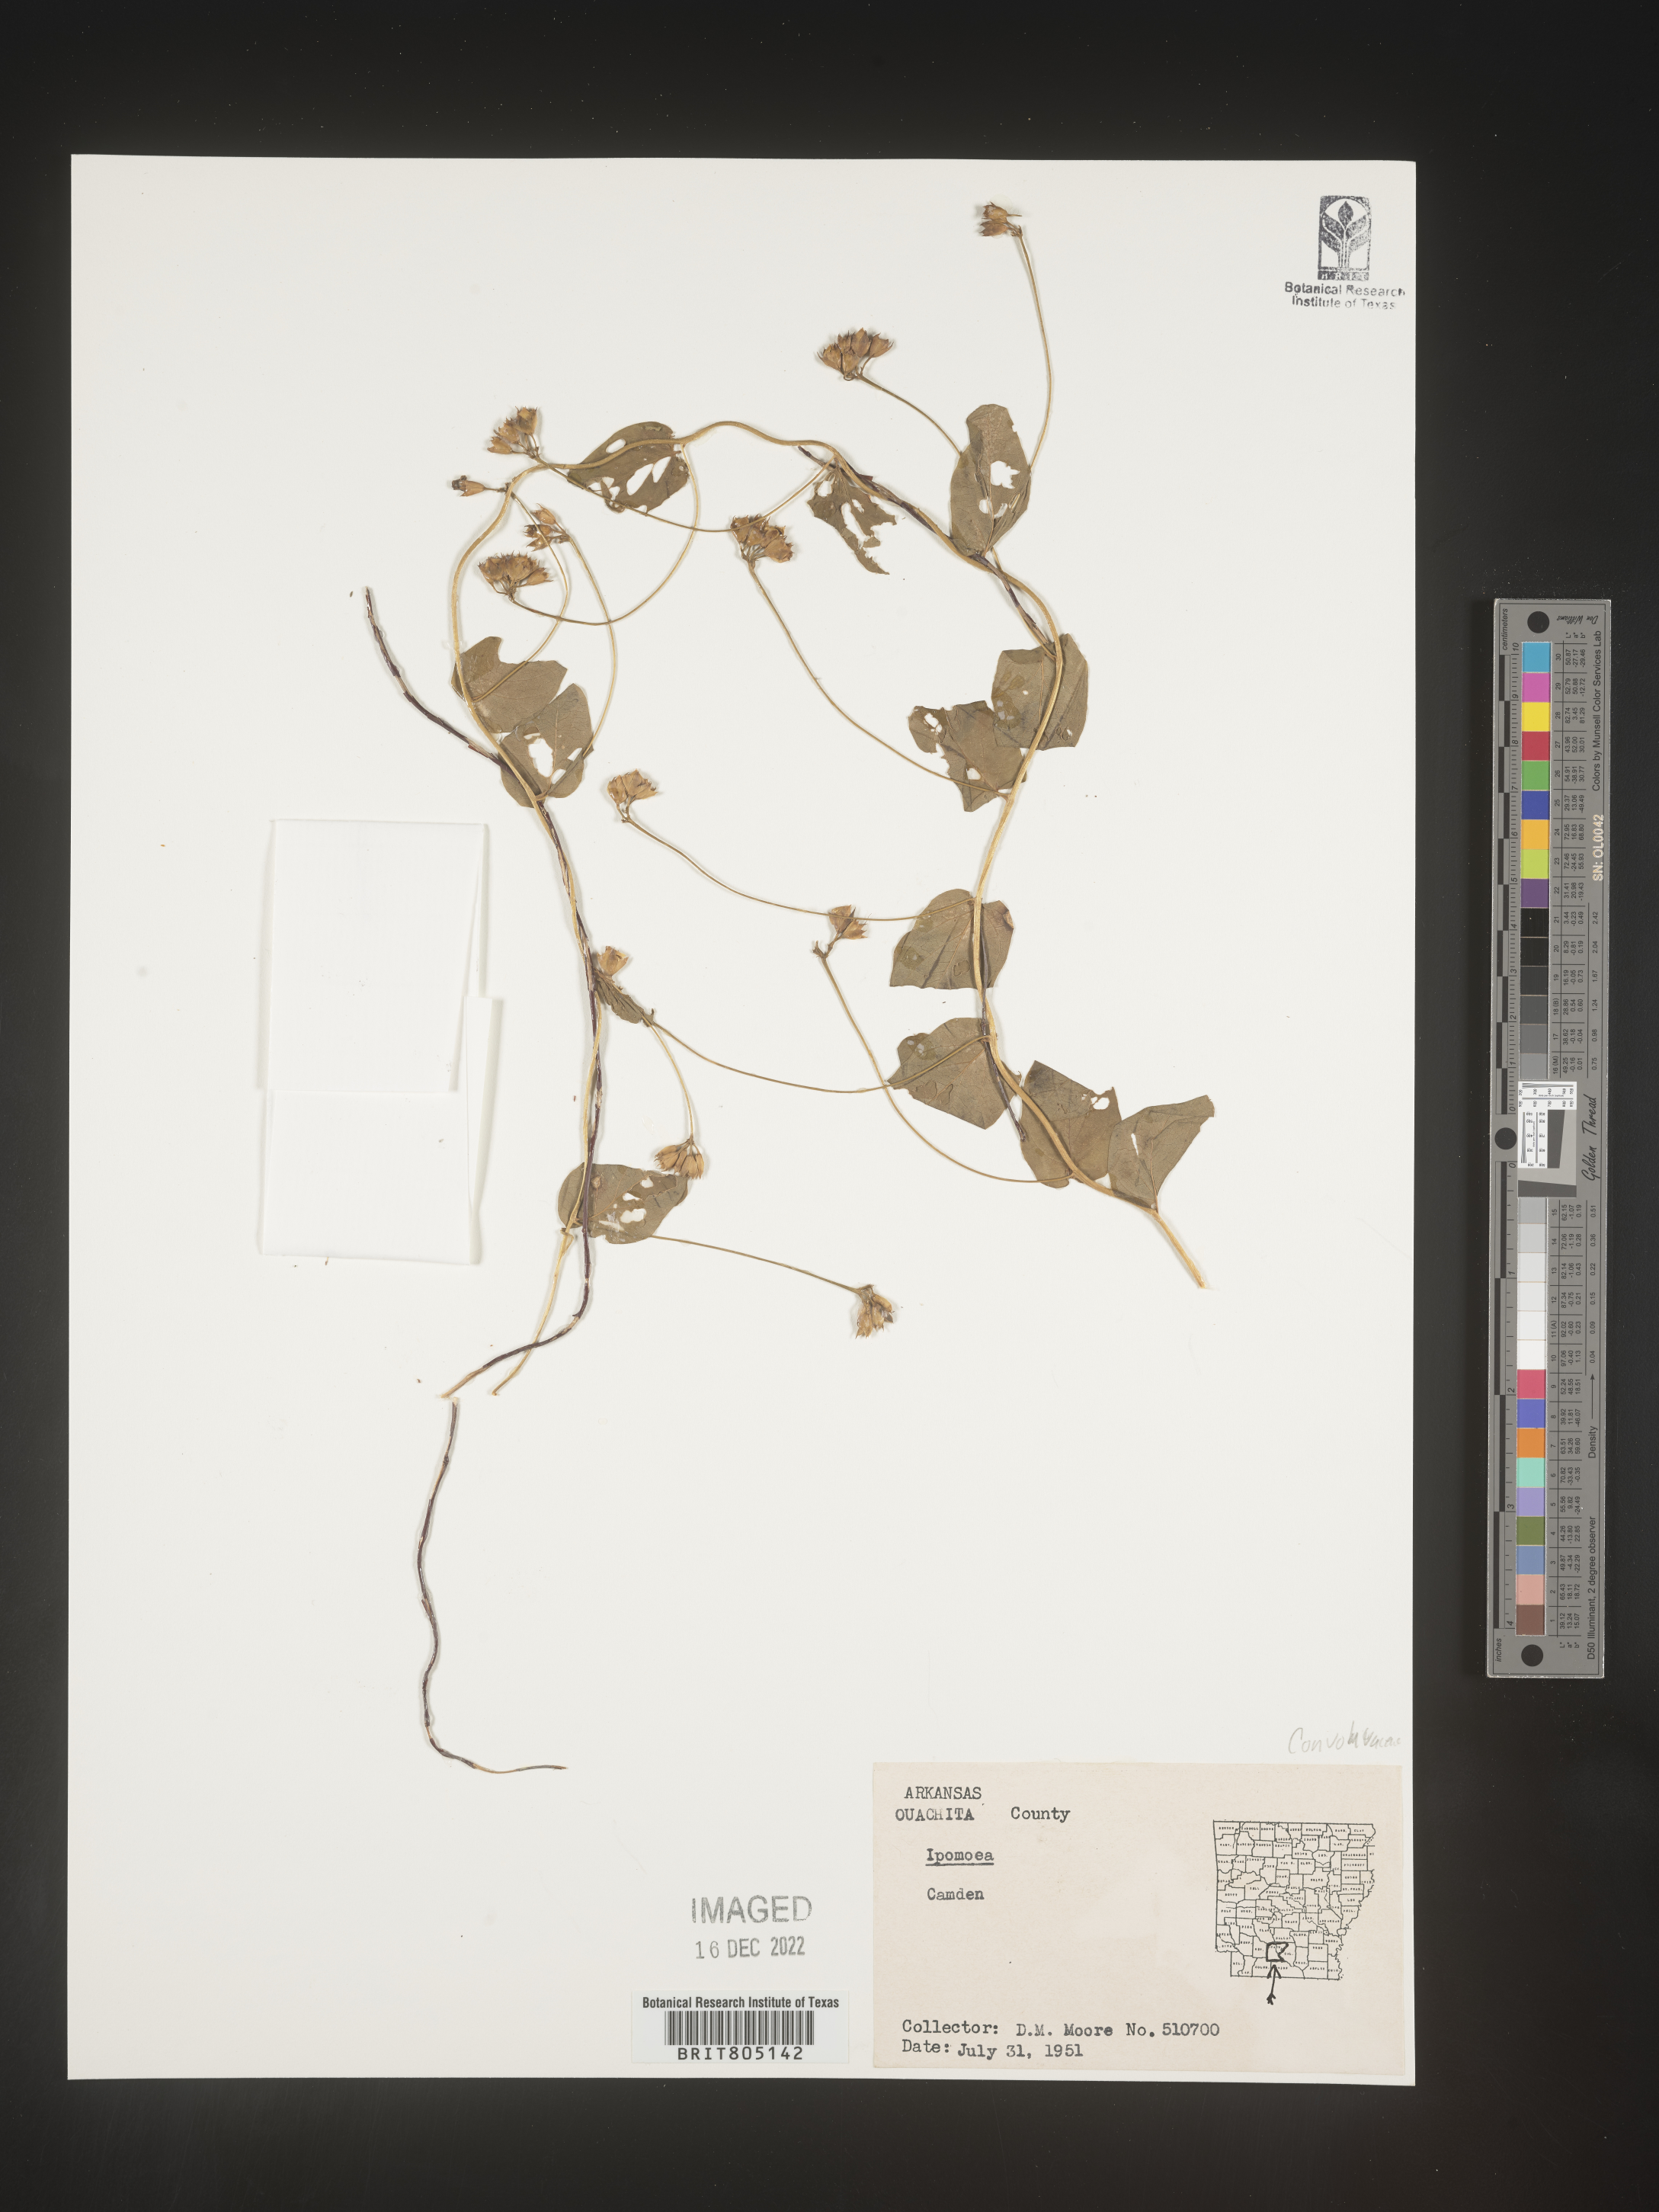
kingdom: Plantae
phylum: Tracheophyta
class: Magnoliopsida
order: Solanales
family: Convolvulaceae
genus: Ipomoea
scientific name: Ipomoea
